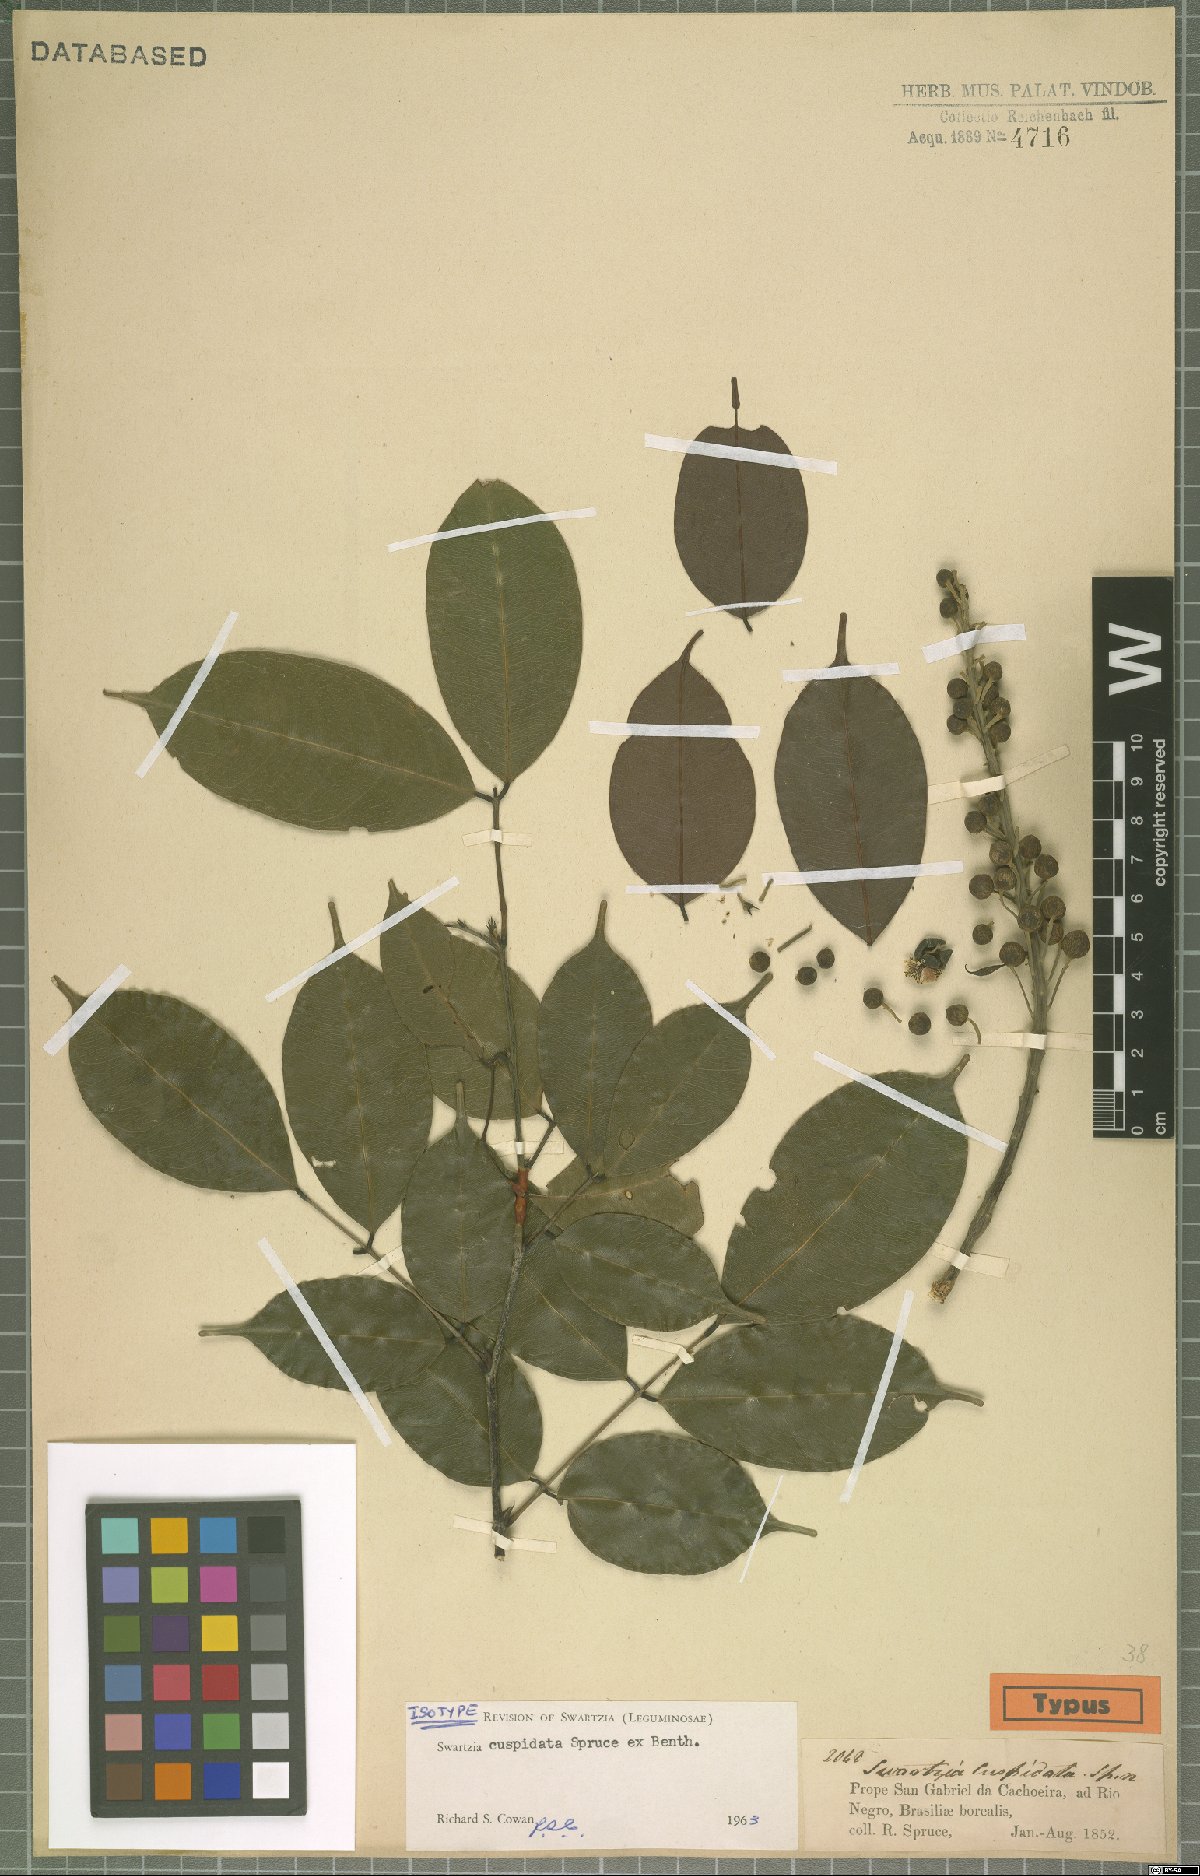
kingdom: Plantae
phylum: Tracheophyta
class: Magnoliopsida
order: Fabales
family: Fabaceae
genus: Swartzia
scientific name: Swartzia cuspidata
